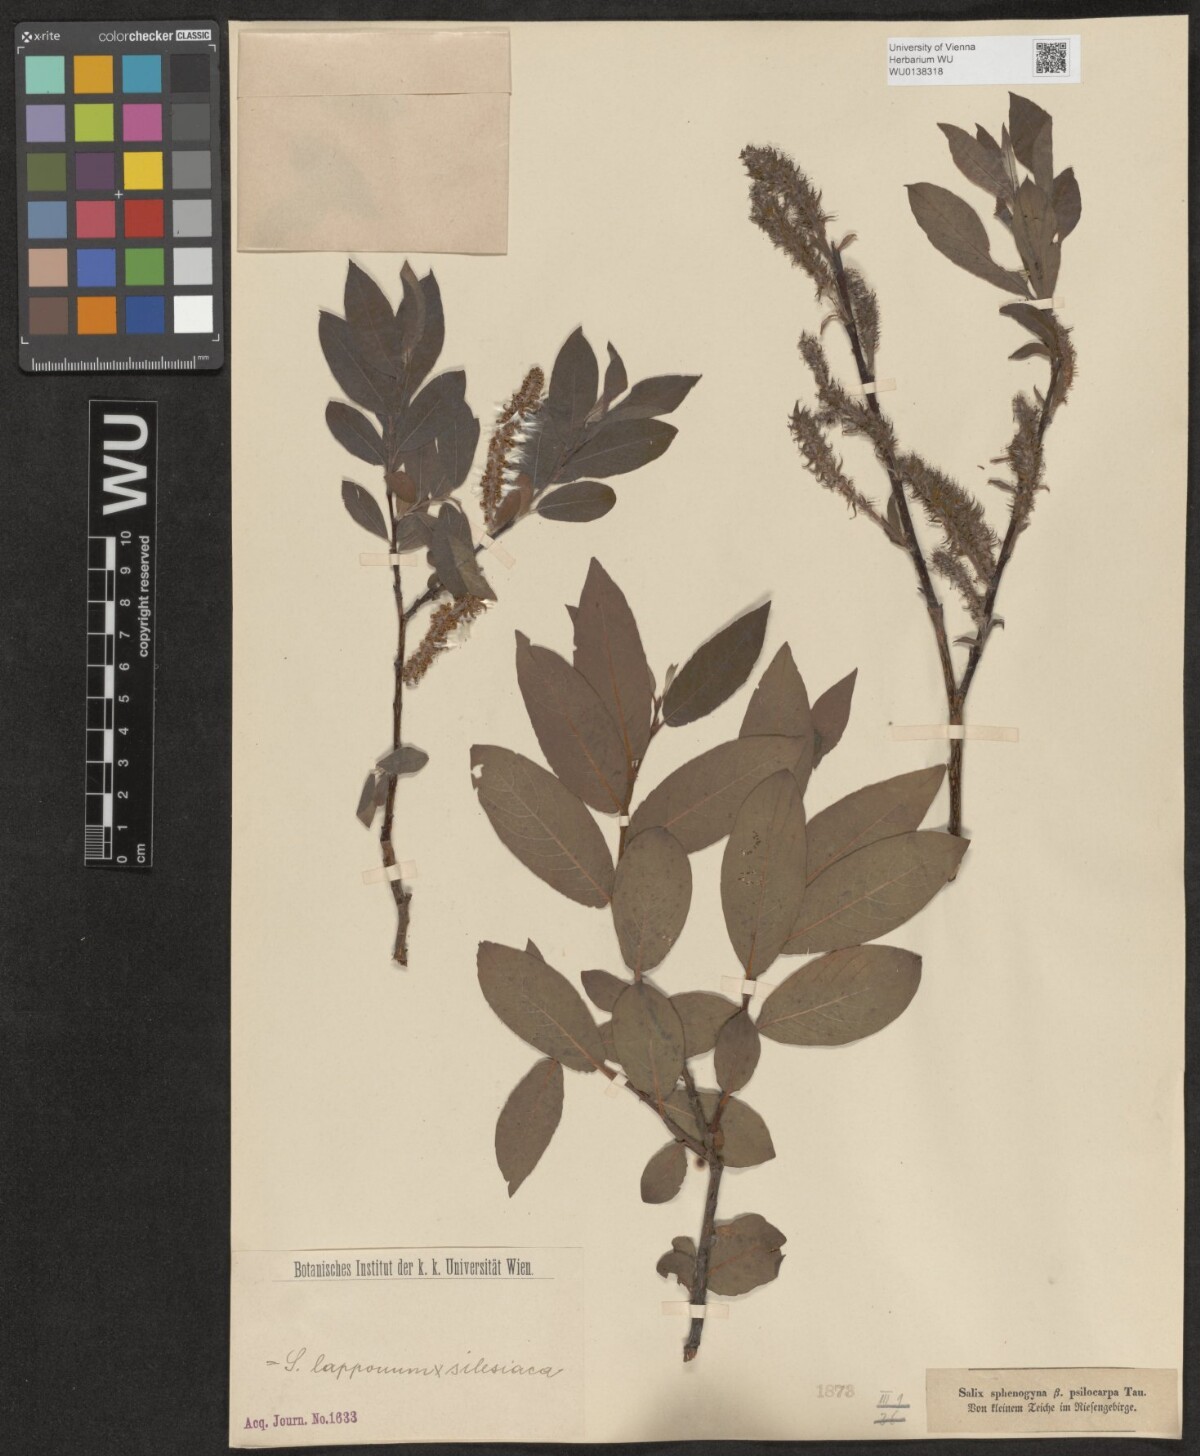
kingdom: Plantae
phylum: Tracheophyta
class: Magnoliopsida
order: Malpighiales
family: Salicaceae
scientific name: Salicaceae
